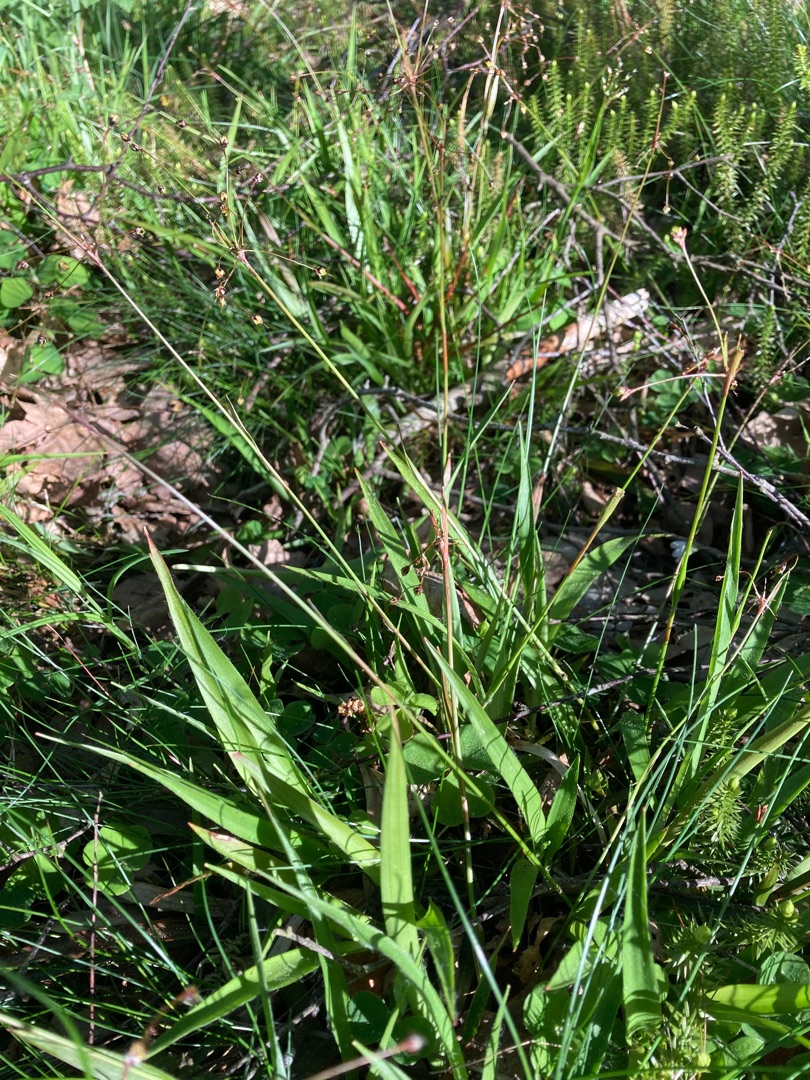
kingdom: Plantae
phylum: Tracheophyta
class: Liliopsida
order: Poales
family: Juncaceae
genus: Luzula
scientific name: Luzula pilosa
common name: Håret frytle
